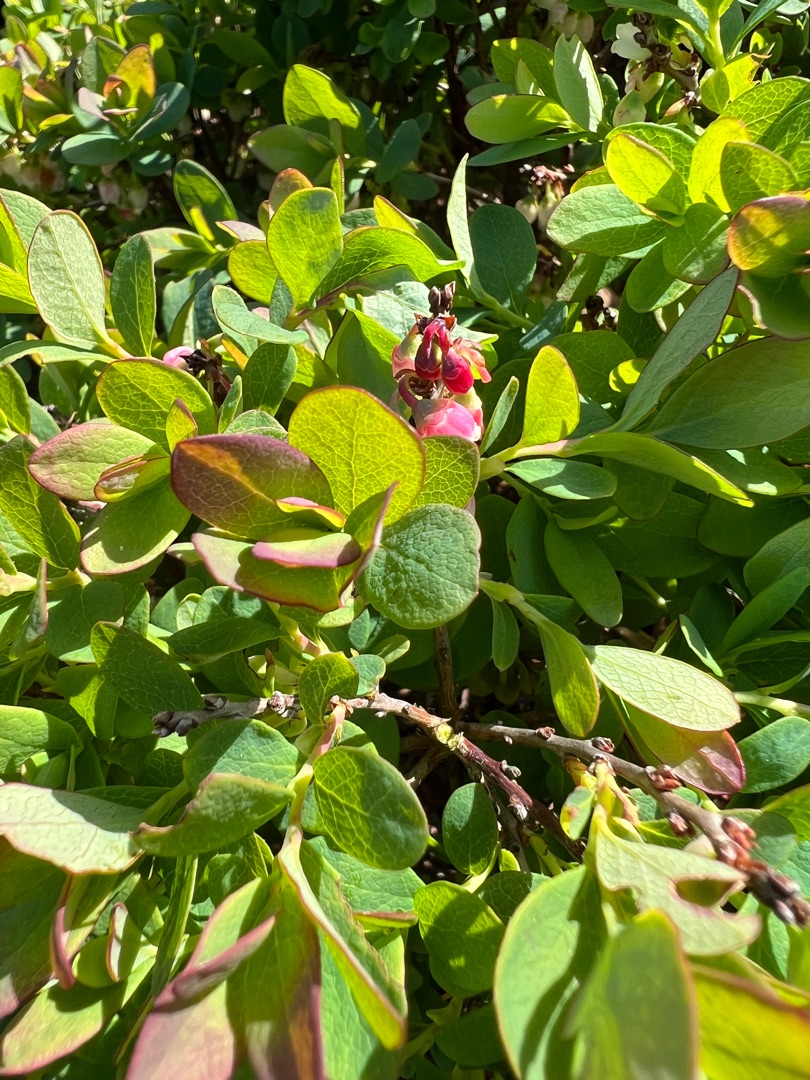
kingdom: Plantae
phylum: Tracheophyta
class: Magnoliopsida
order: Ericales
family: Ericaceae
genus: Vaccinium
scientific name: Vaccinium uliginosum
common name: Mose-bølle
